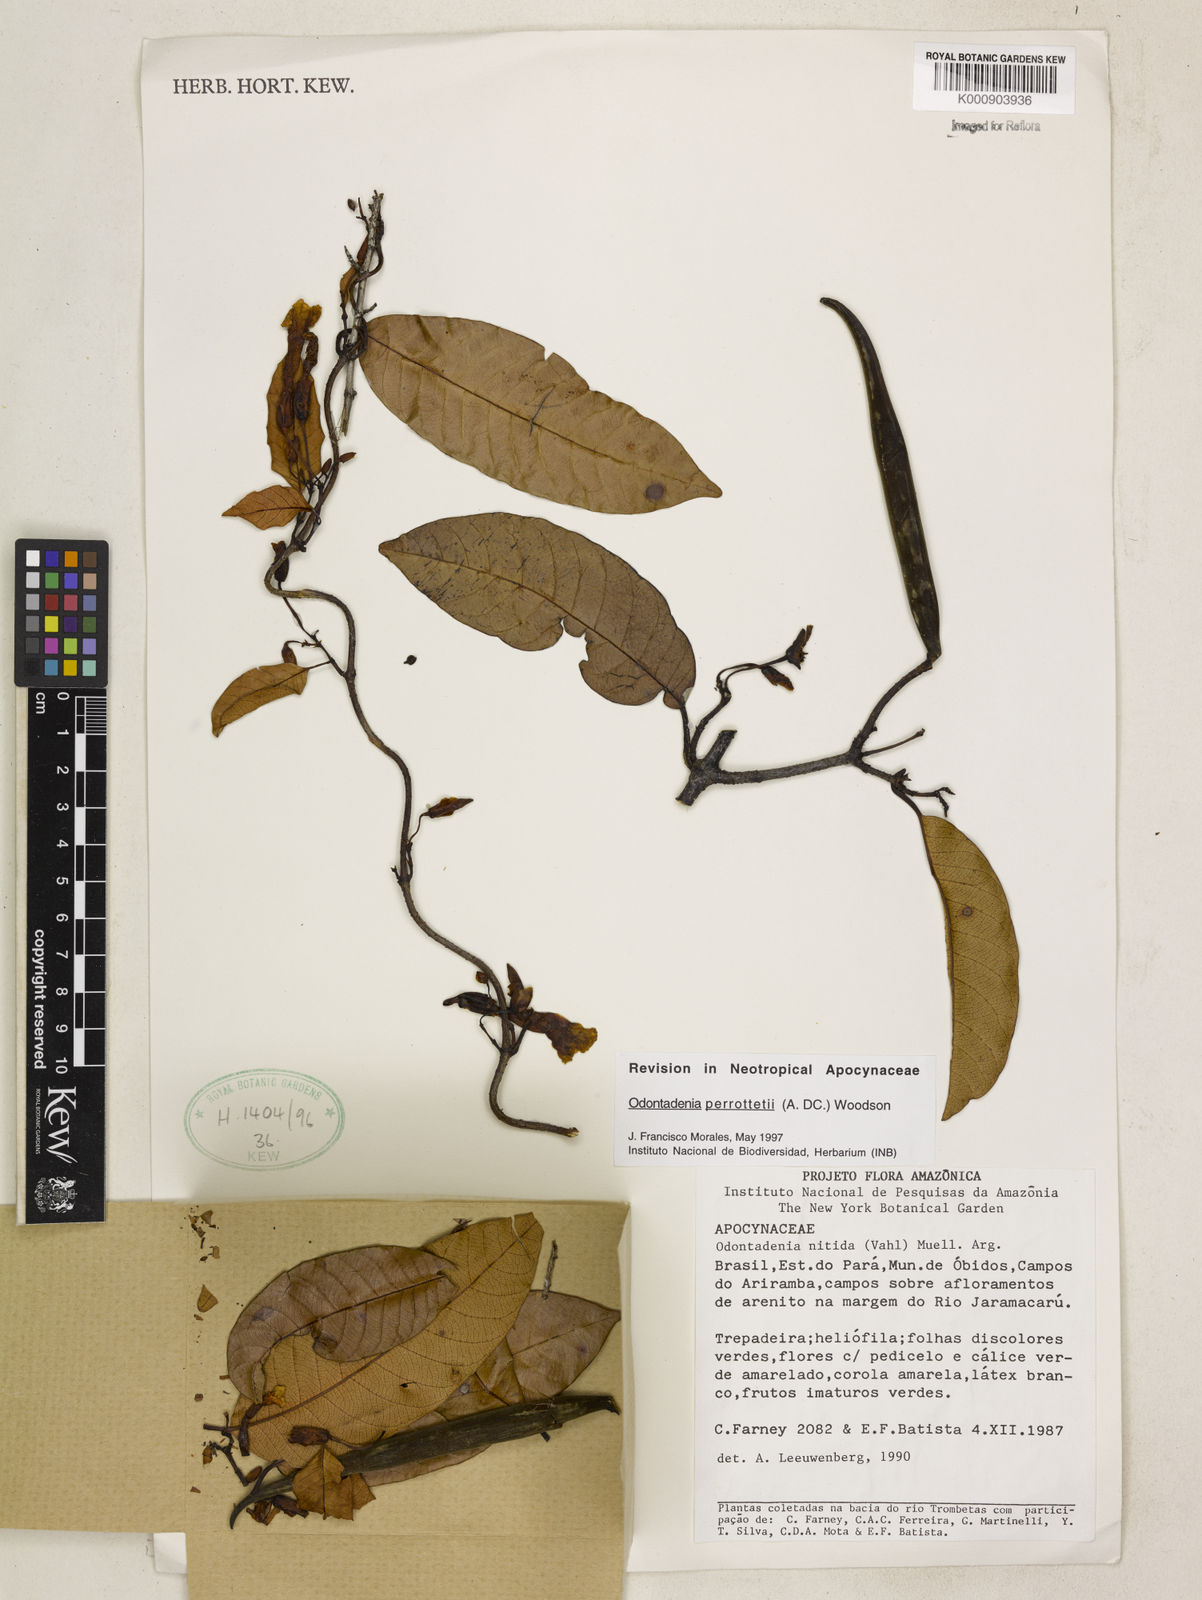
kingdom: Plantae
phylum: Tracheophyta
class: Magnoliopsida
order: Gentianales
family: Apocynaceae
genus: Odontadenia
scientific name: Odontadenia perrottetii
